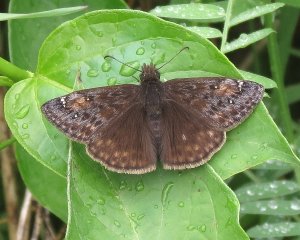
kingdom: Animalia
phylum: Arthropoda
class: Insecta
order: Lepidoptera
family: Hesperiidae
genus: Gesta
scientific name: Gesta
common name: Wild Indigo Duskywing
